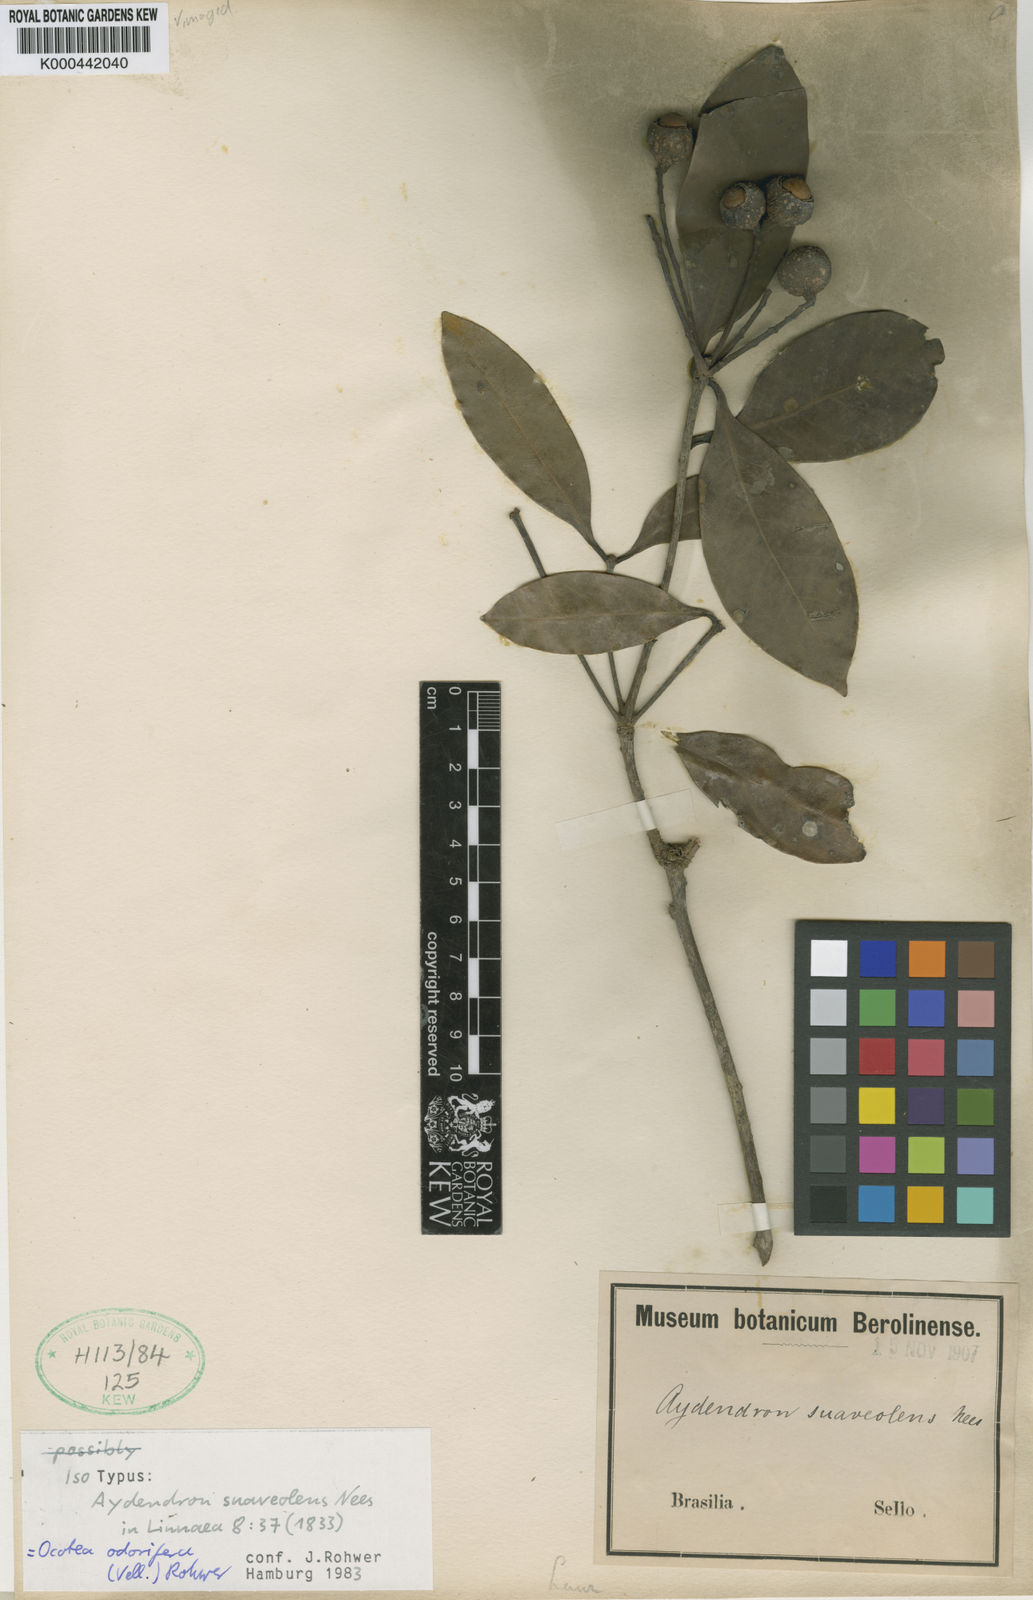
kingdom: Plantae
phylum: Tracheophyta
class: Magnoliopsida
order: Laurales
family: Lauraceae
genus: Mespilodaphne
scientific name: Mespilodaphne quixos
